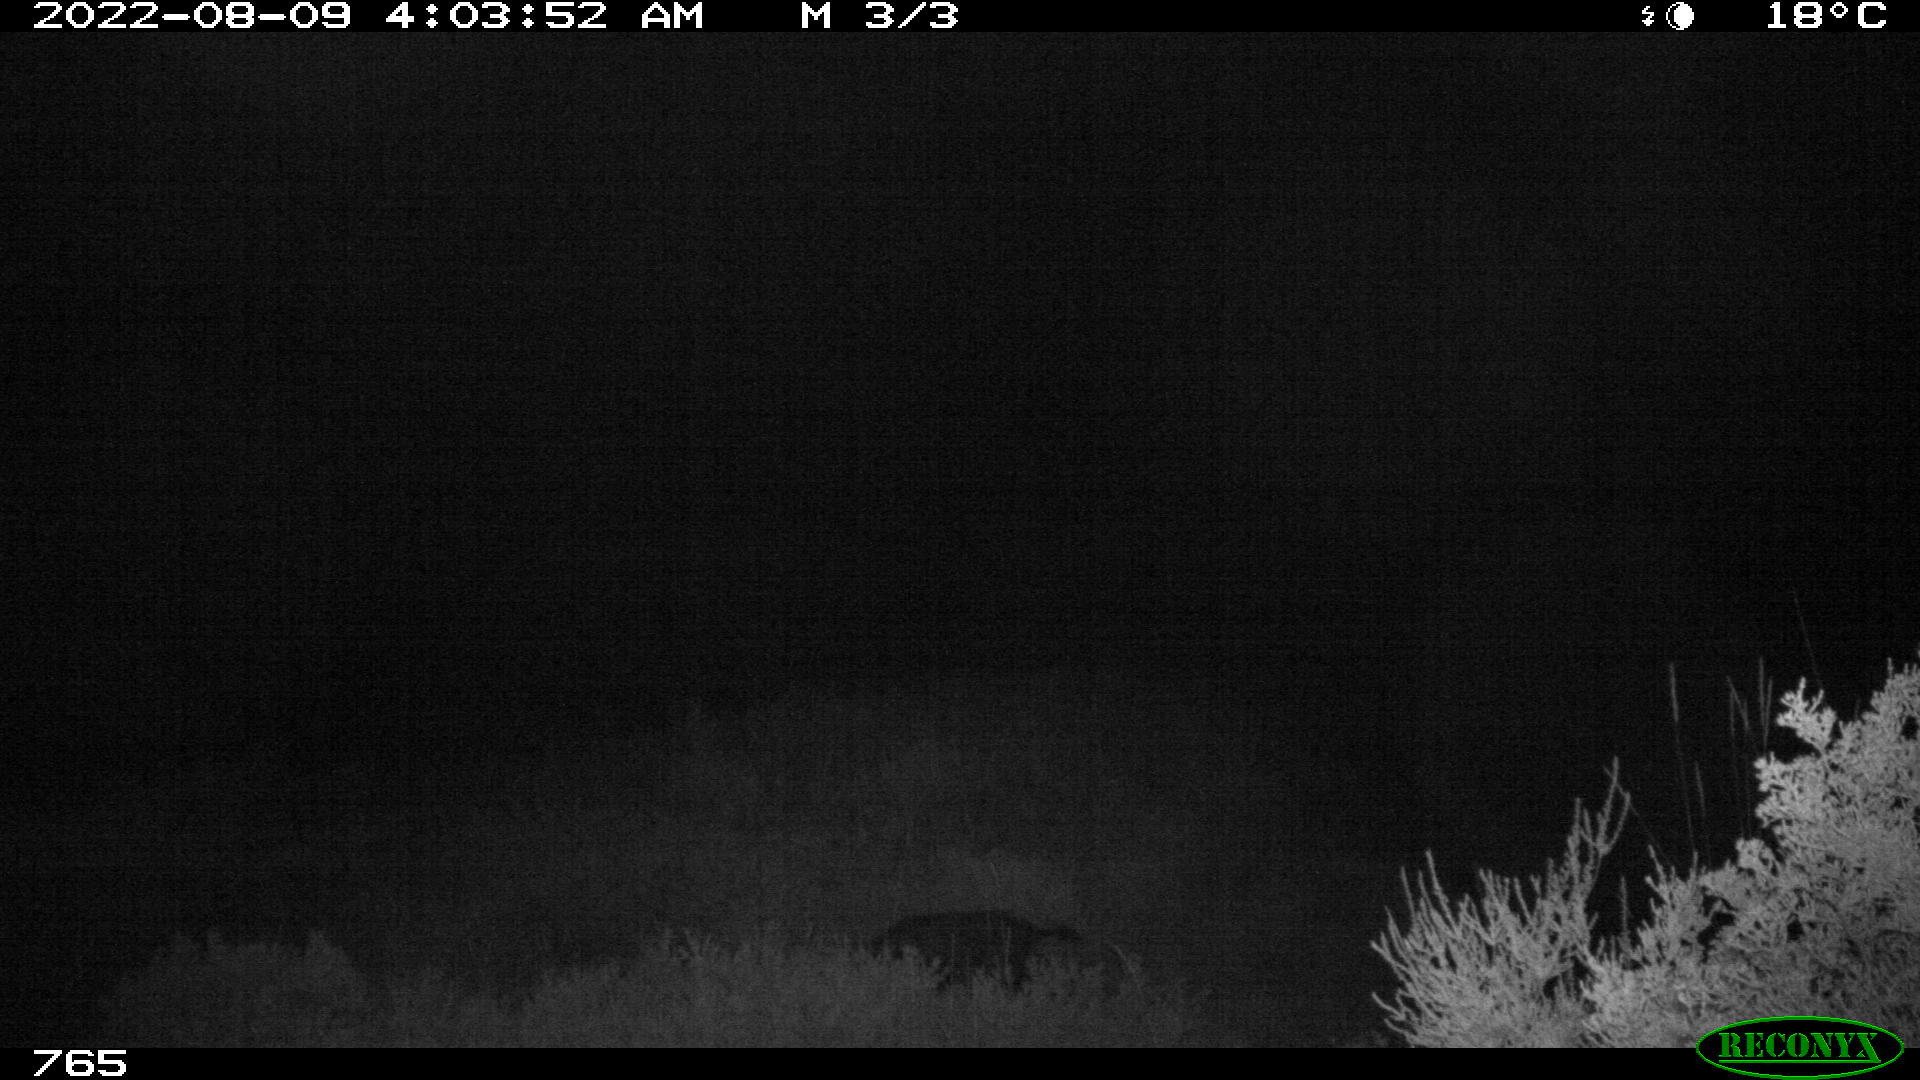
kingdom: Animalia
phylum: Chordata
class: Mammalia
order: Artiodactyla
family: Suidae
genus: Sus
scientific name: Sus scrofa
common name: Wild boar
